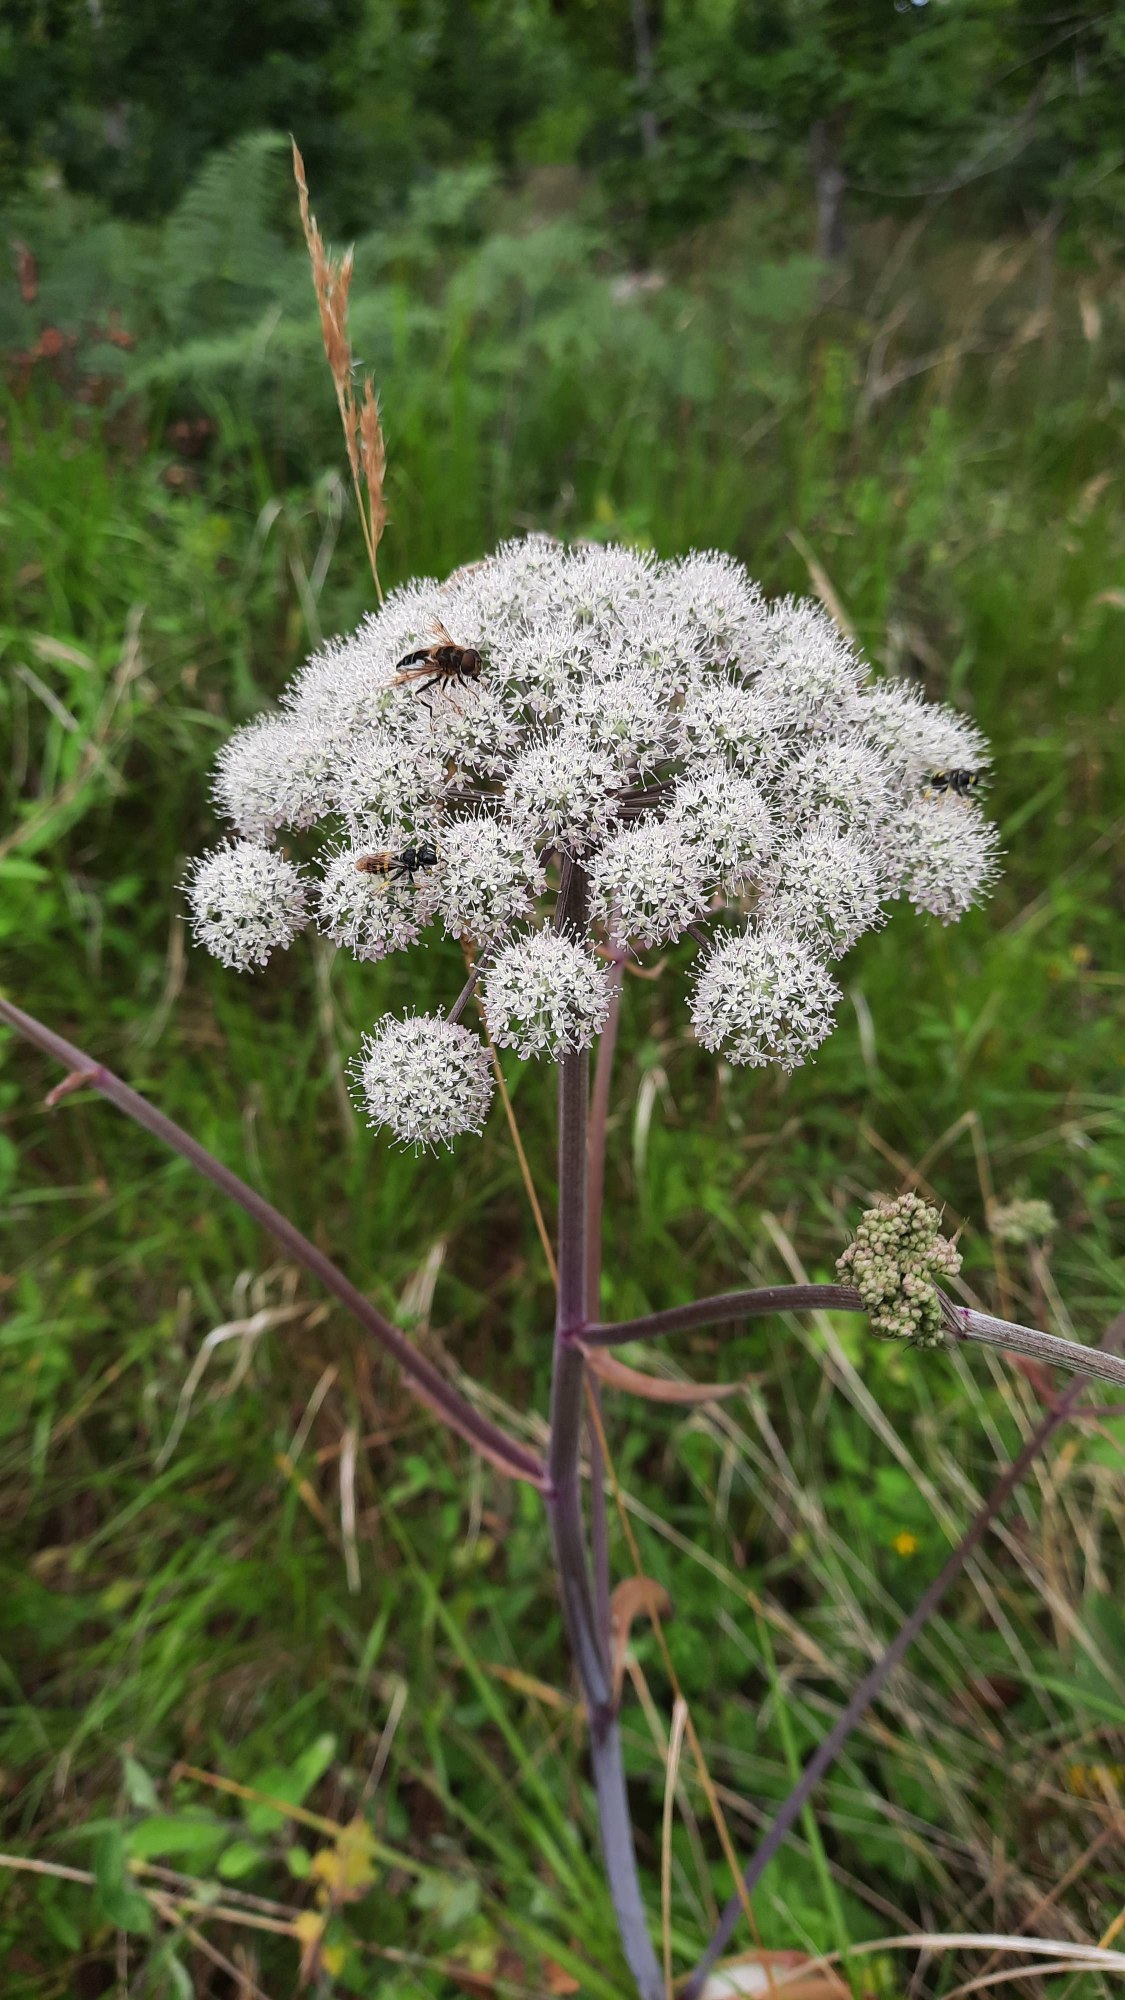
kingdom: Plantae
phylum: Tracheophyta
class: Magnoliopsida
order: Apiales
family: Apiaceae
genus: Angelica
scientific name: Angelica sylvestris
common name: Angelik
